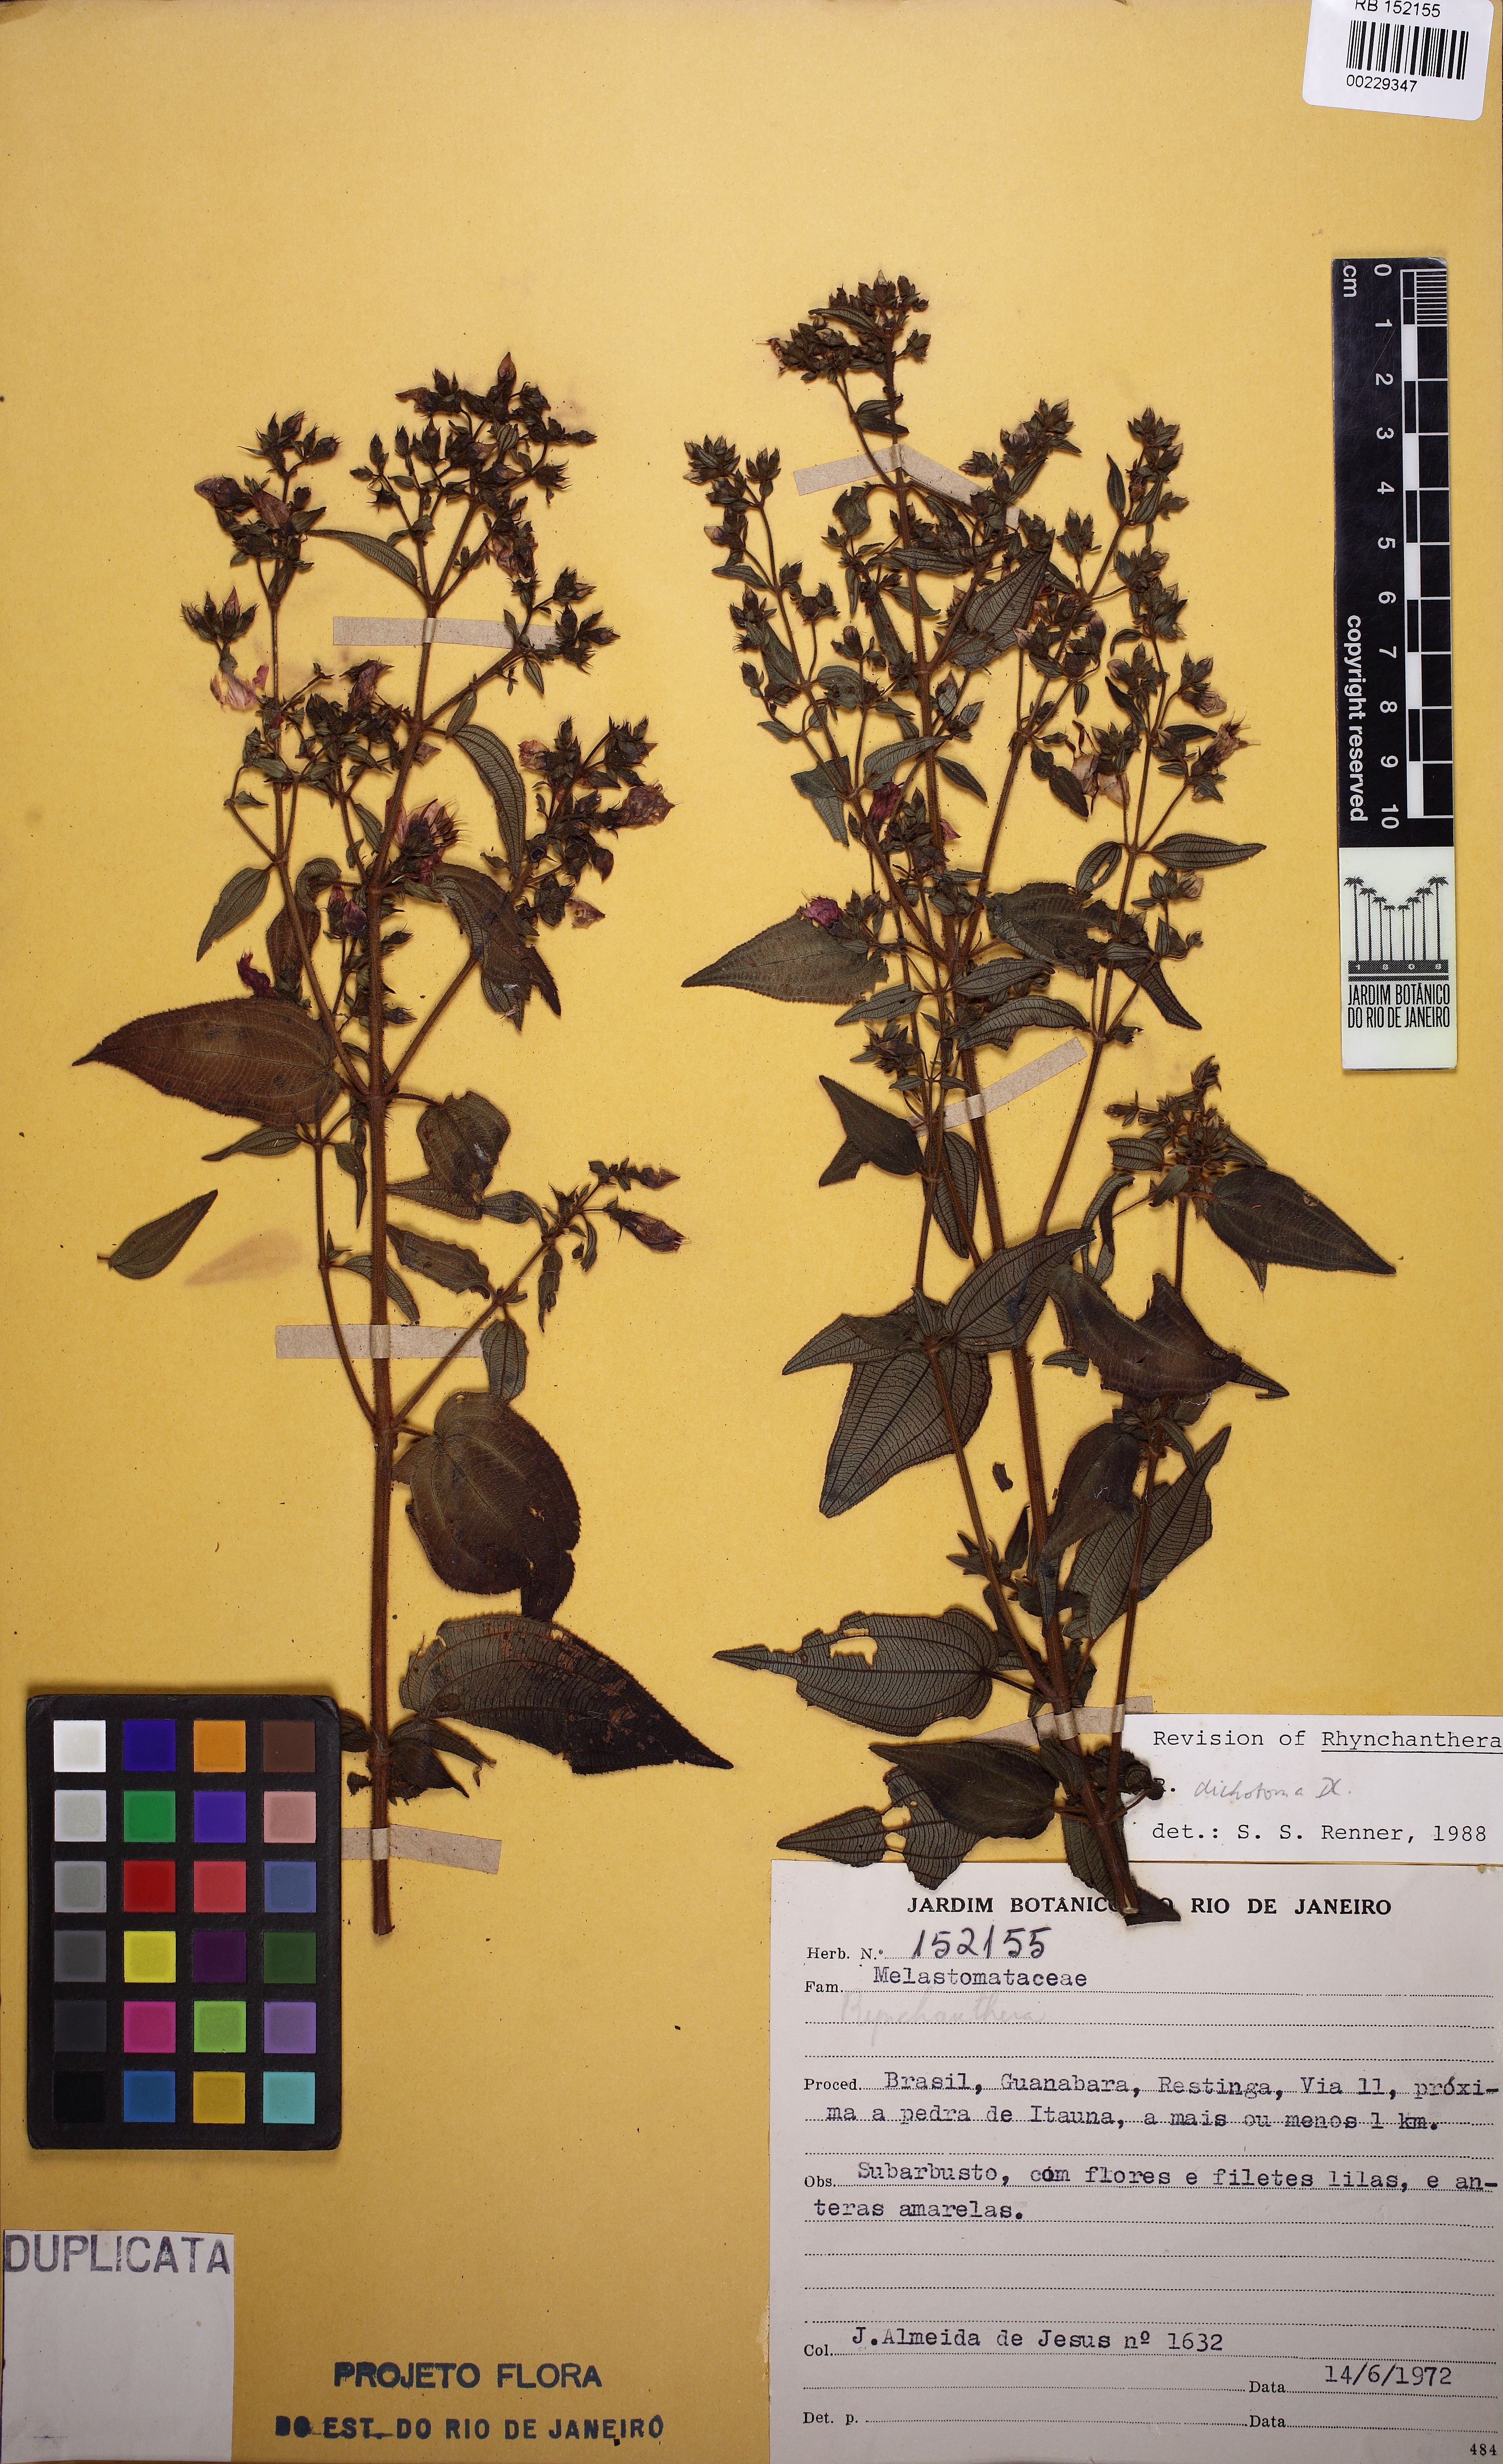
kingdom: Plantae
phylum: Tracheophyta
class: Magnoliopsida
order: Myrtales
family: Melastomataceae
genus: Rhynchanthera
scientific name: Rhynchanthera dichotoma
